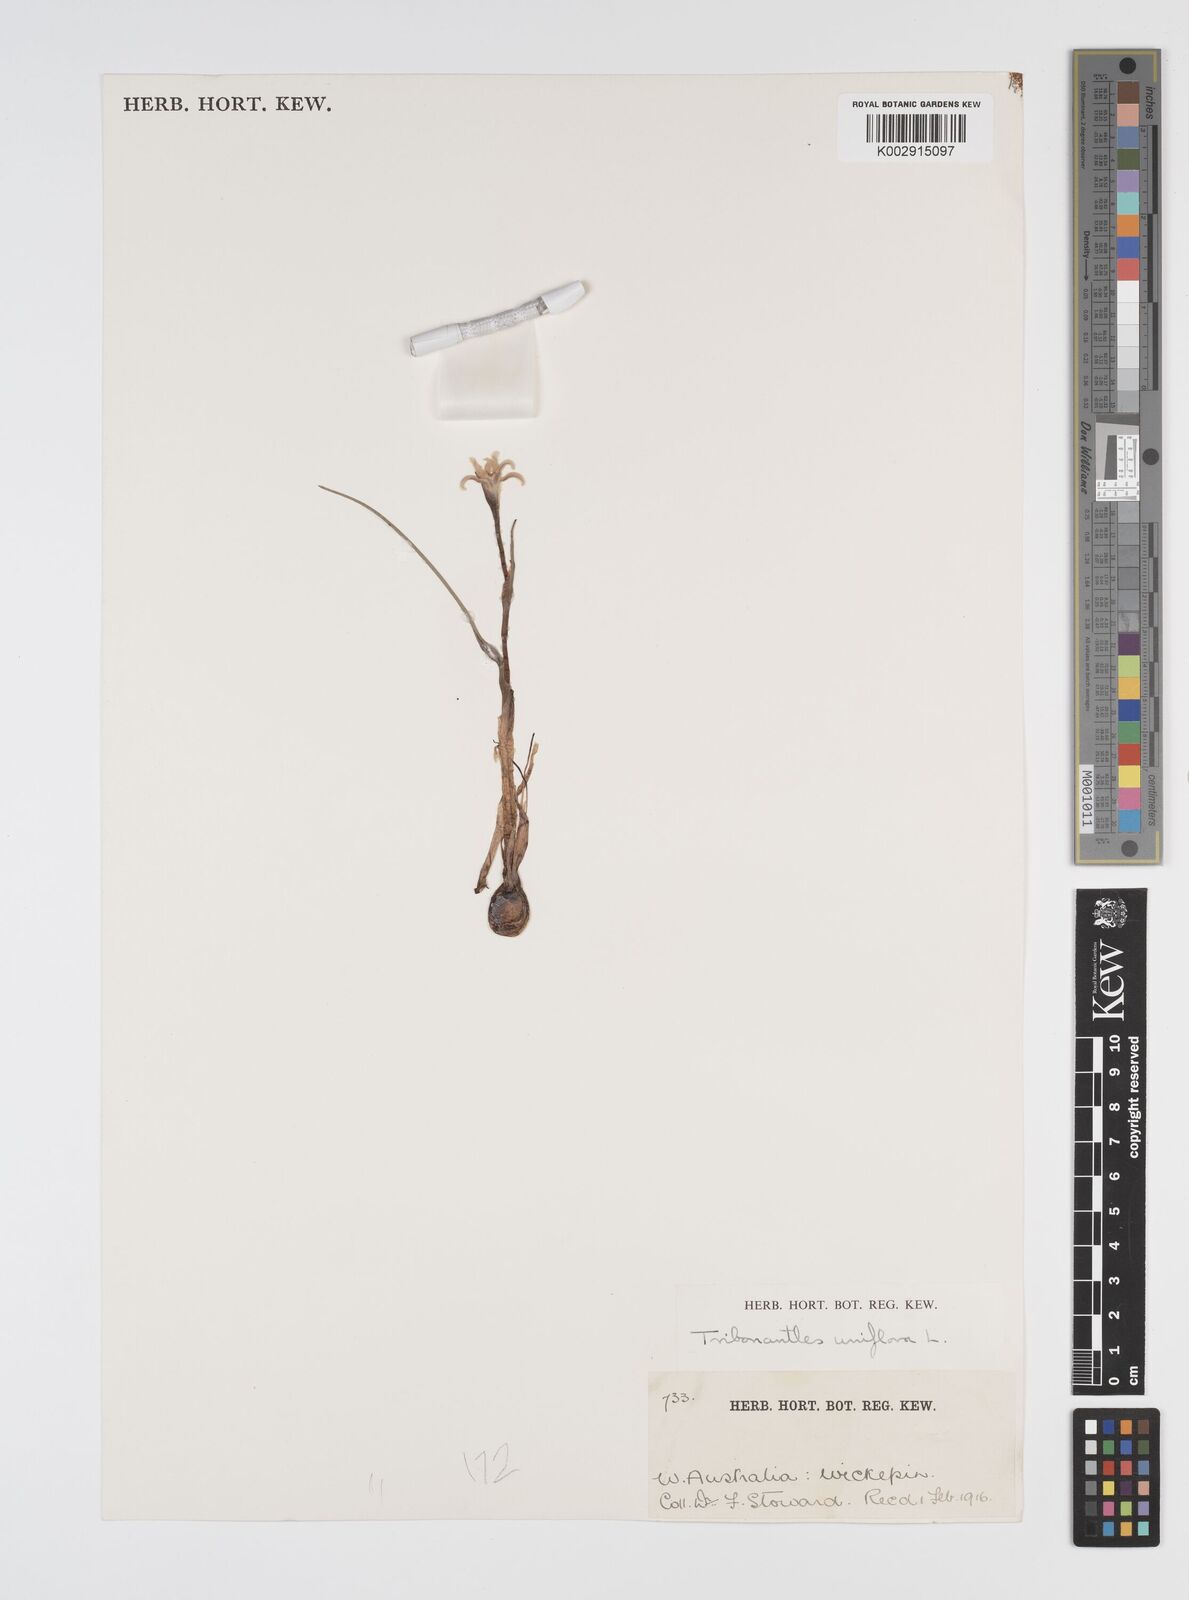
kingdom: Plantae
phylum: Tracheophyta
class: Liliopsida
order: Commelinales
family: Haemodoraceae
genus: Tribonanthes
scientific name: Tribonanthes uniflora
